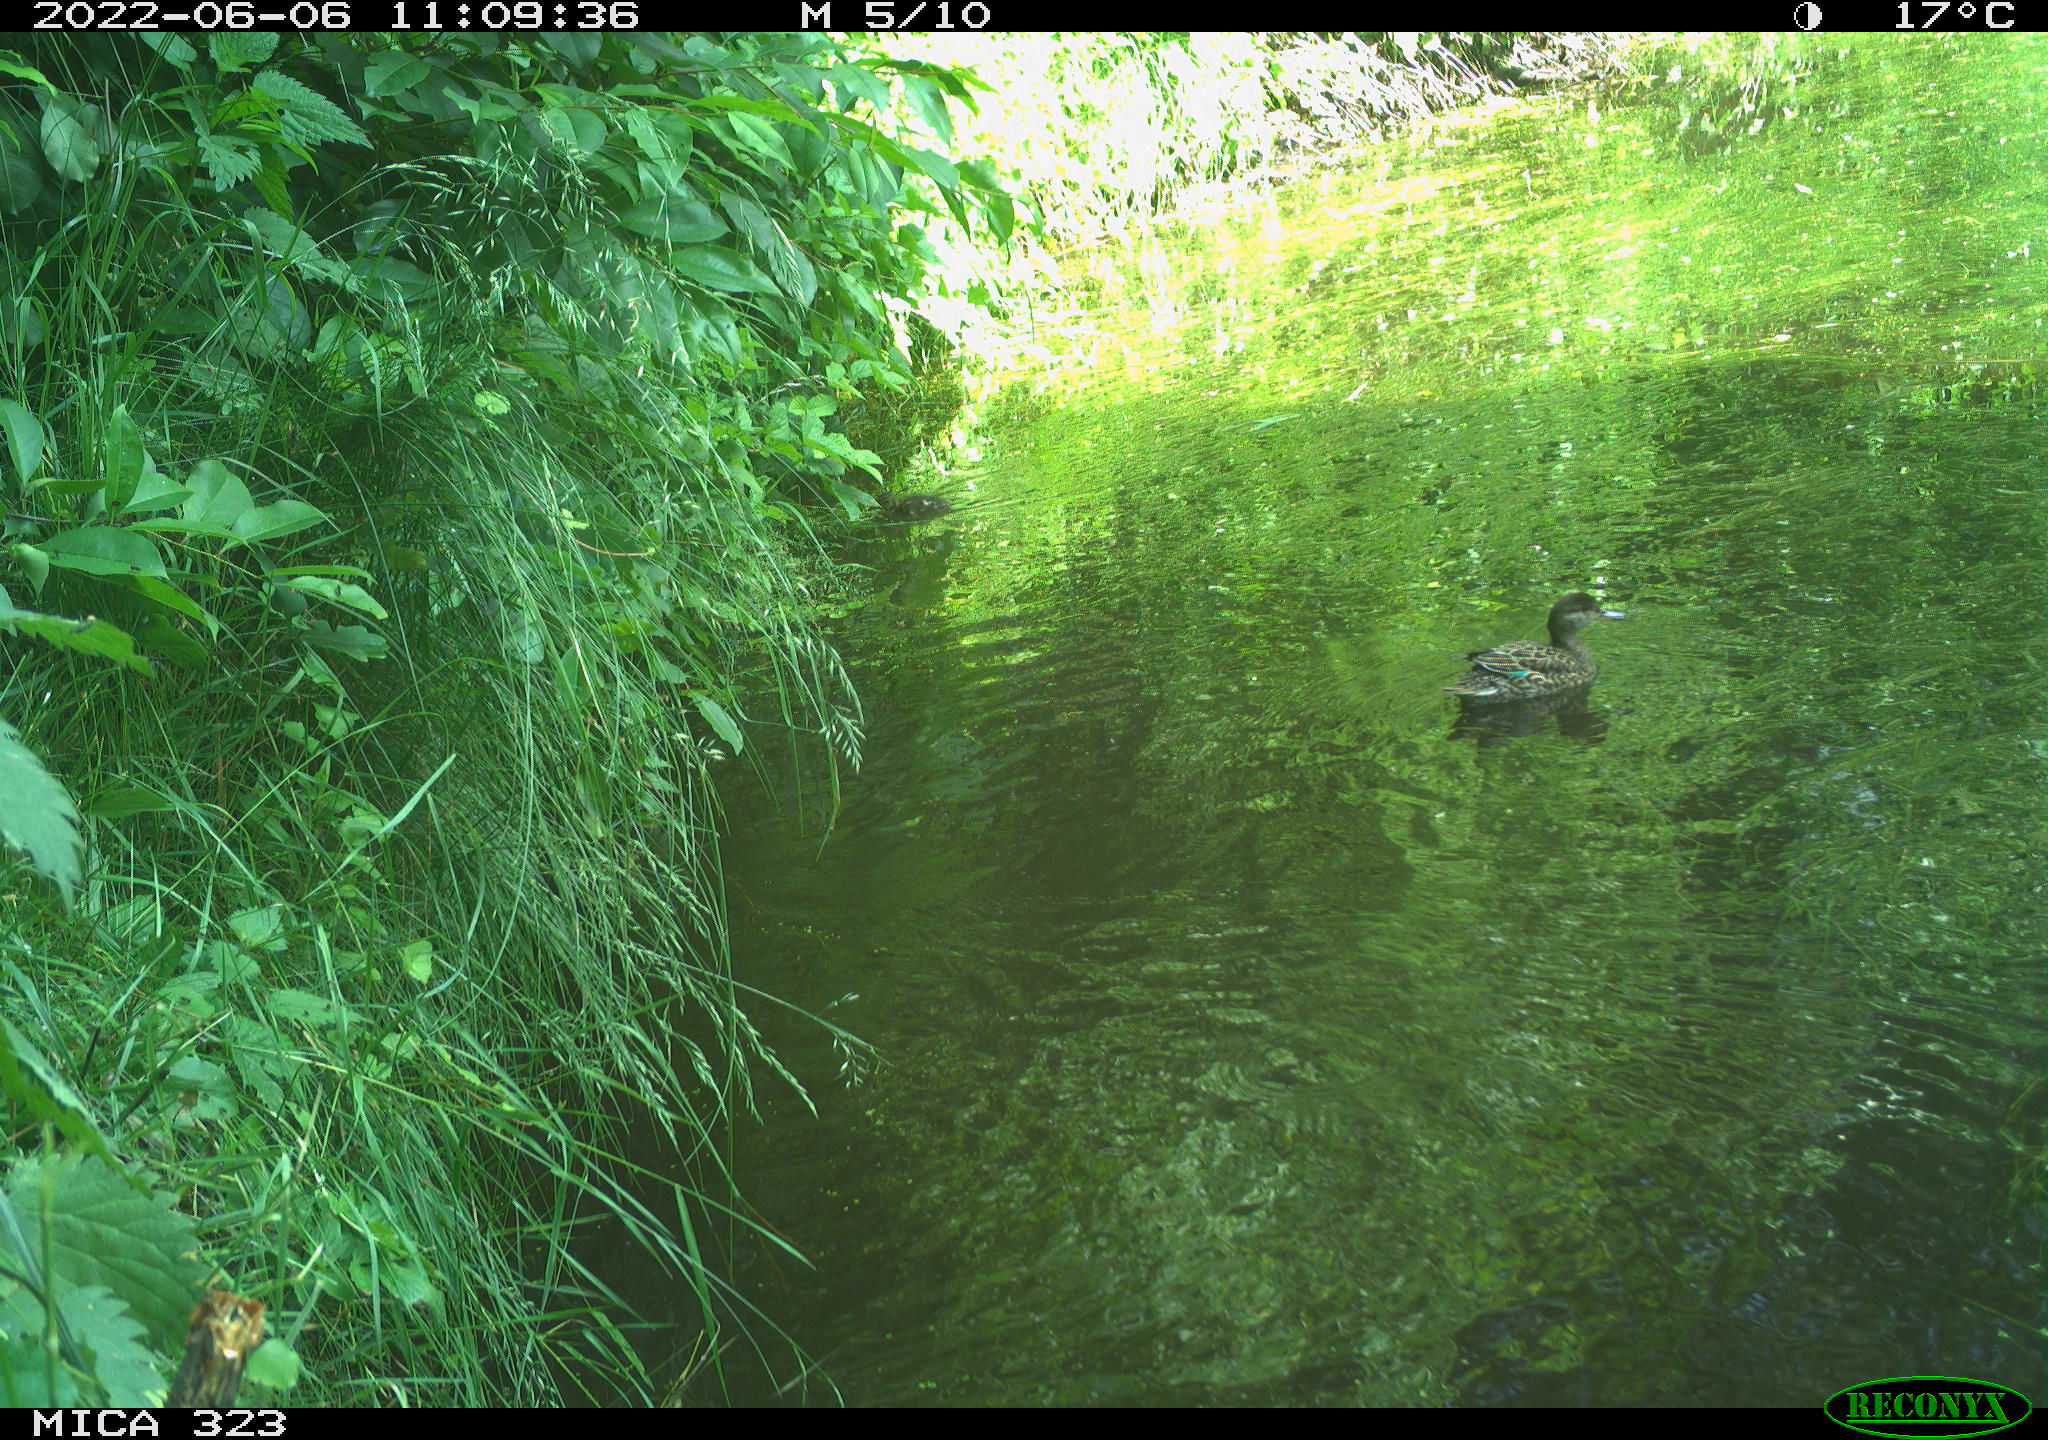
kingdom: Animalia
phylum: Chordata
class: Aves
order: Anseriformes
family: Anatidae
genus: Anas
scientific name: Anas platyrhynchos
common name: Mallard
